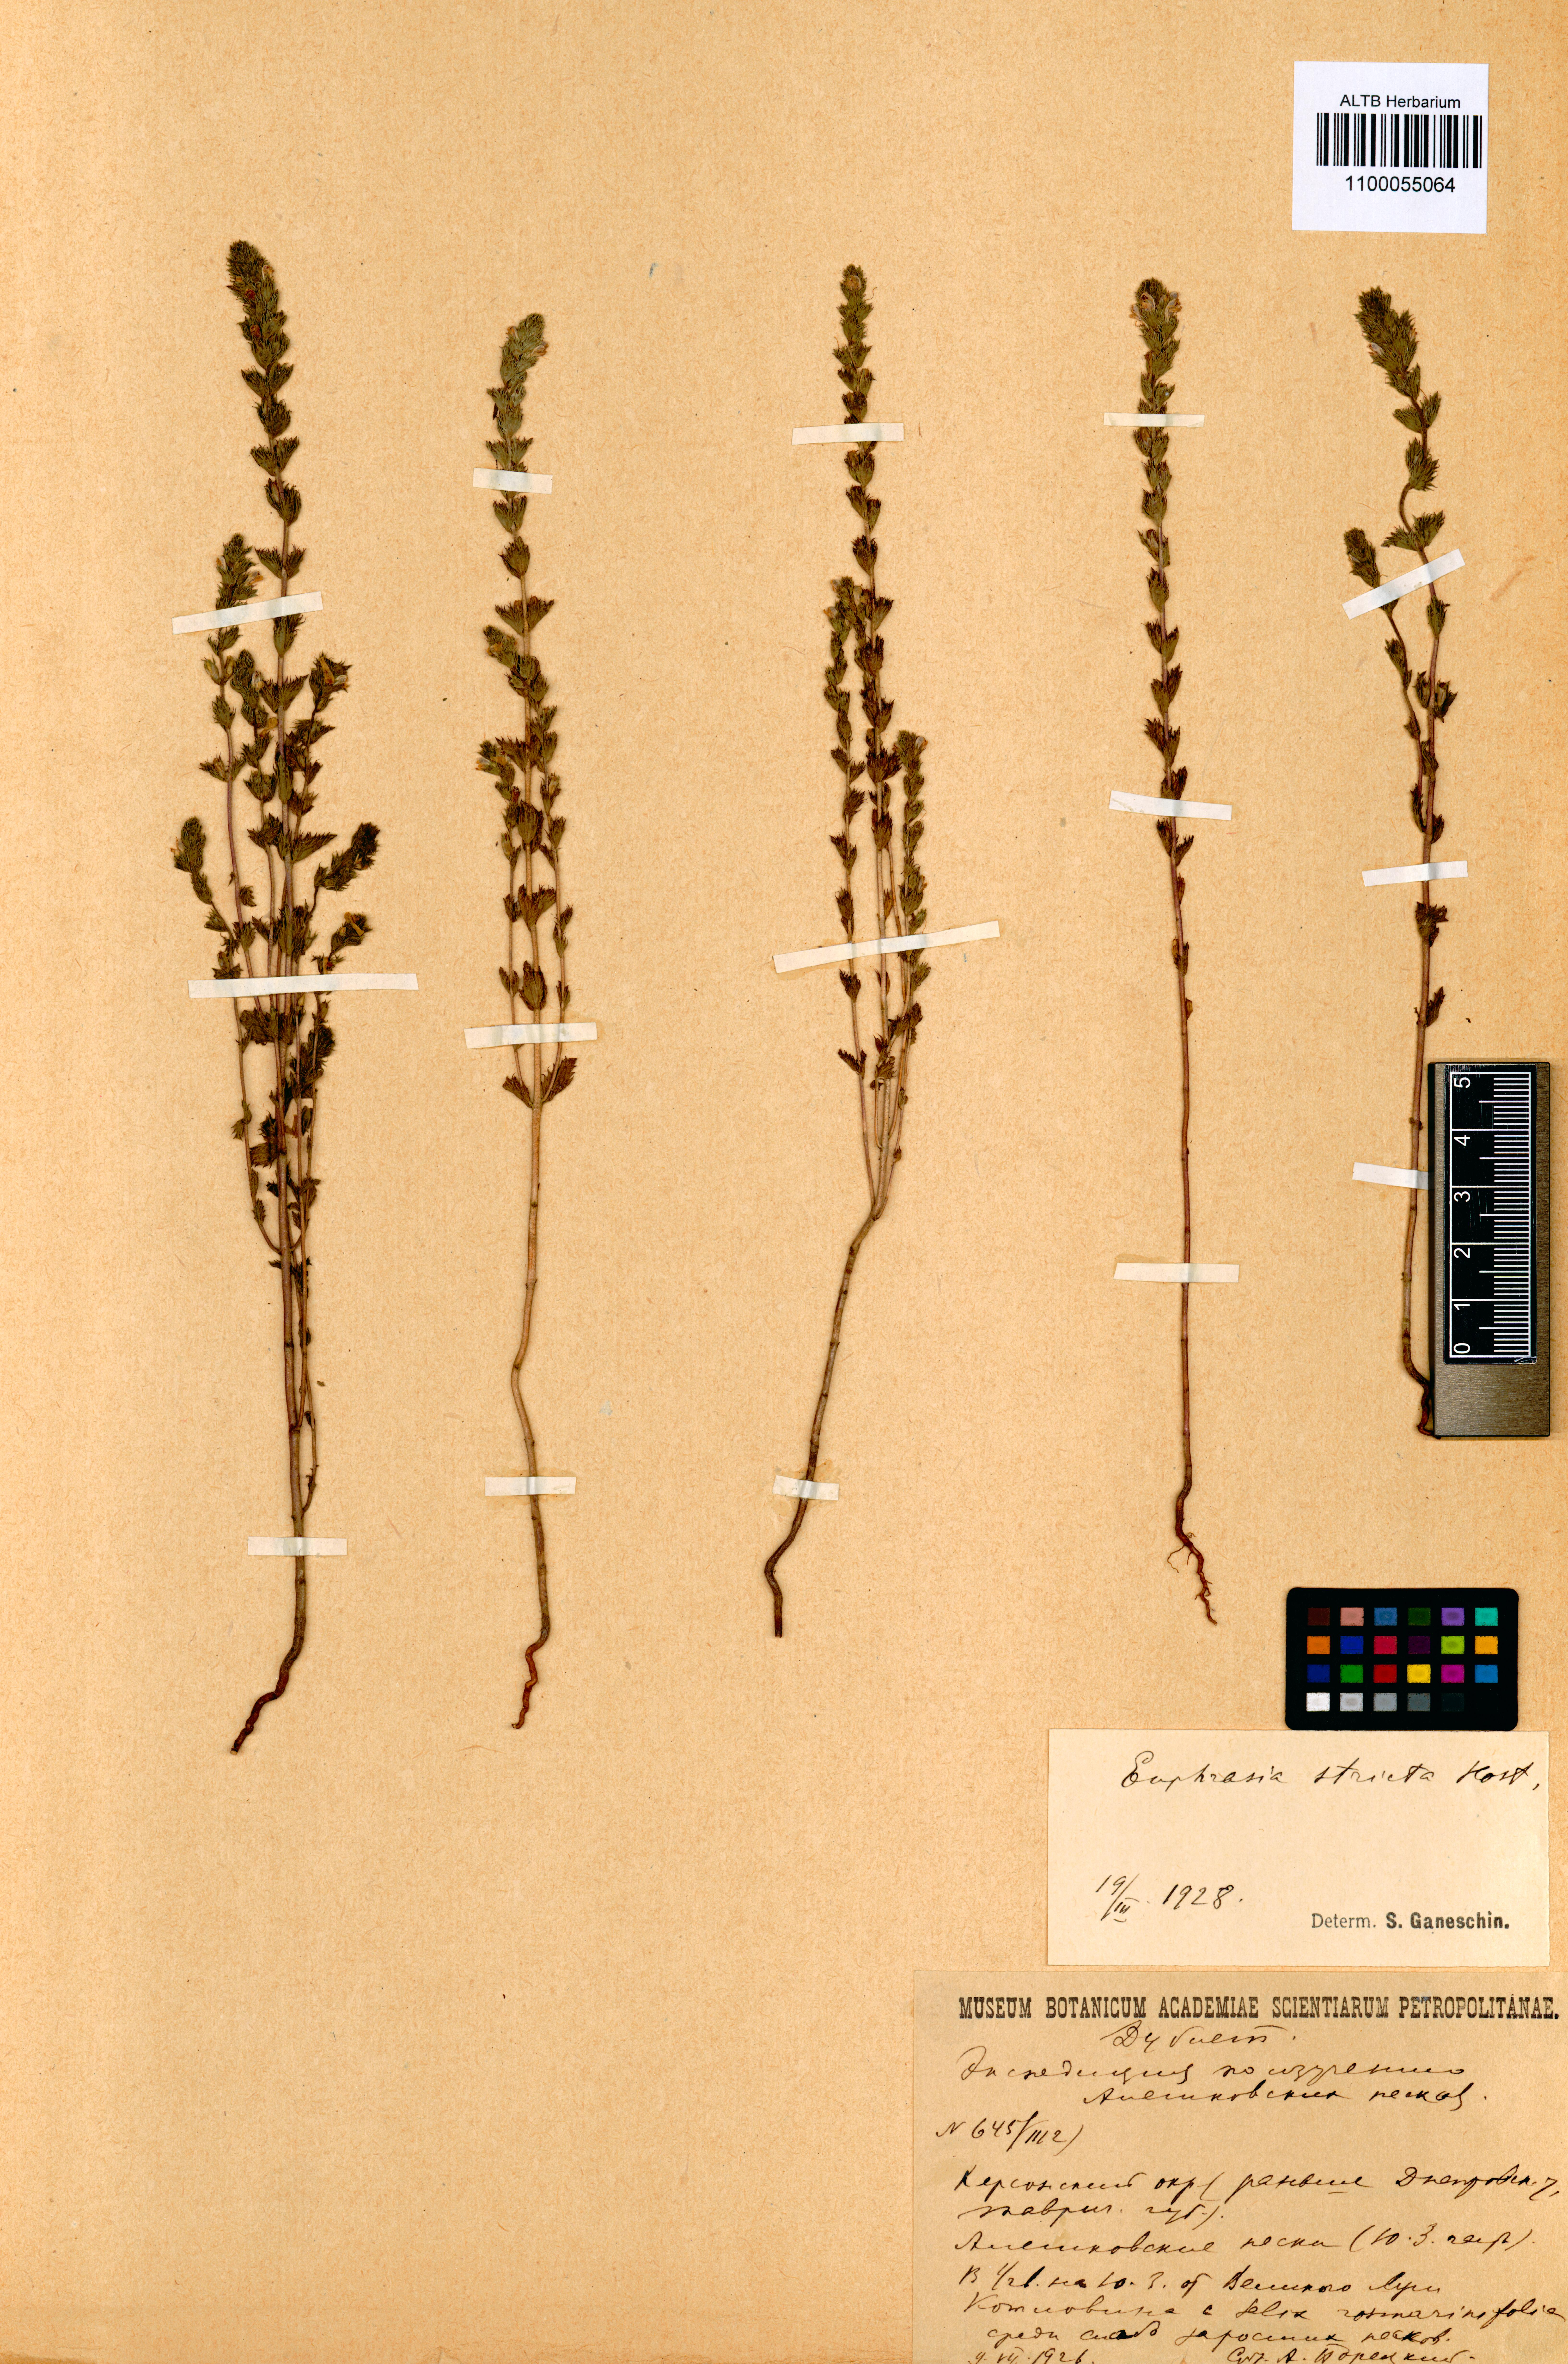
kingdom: Plantae
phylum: Tracheophyta
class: Magnoliopsida
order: Lamiales
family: Orobanchaceae
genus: Euphrasia
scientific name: Euphrasia officinalis
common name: Eyebright
